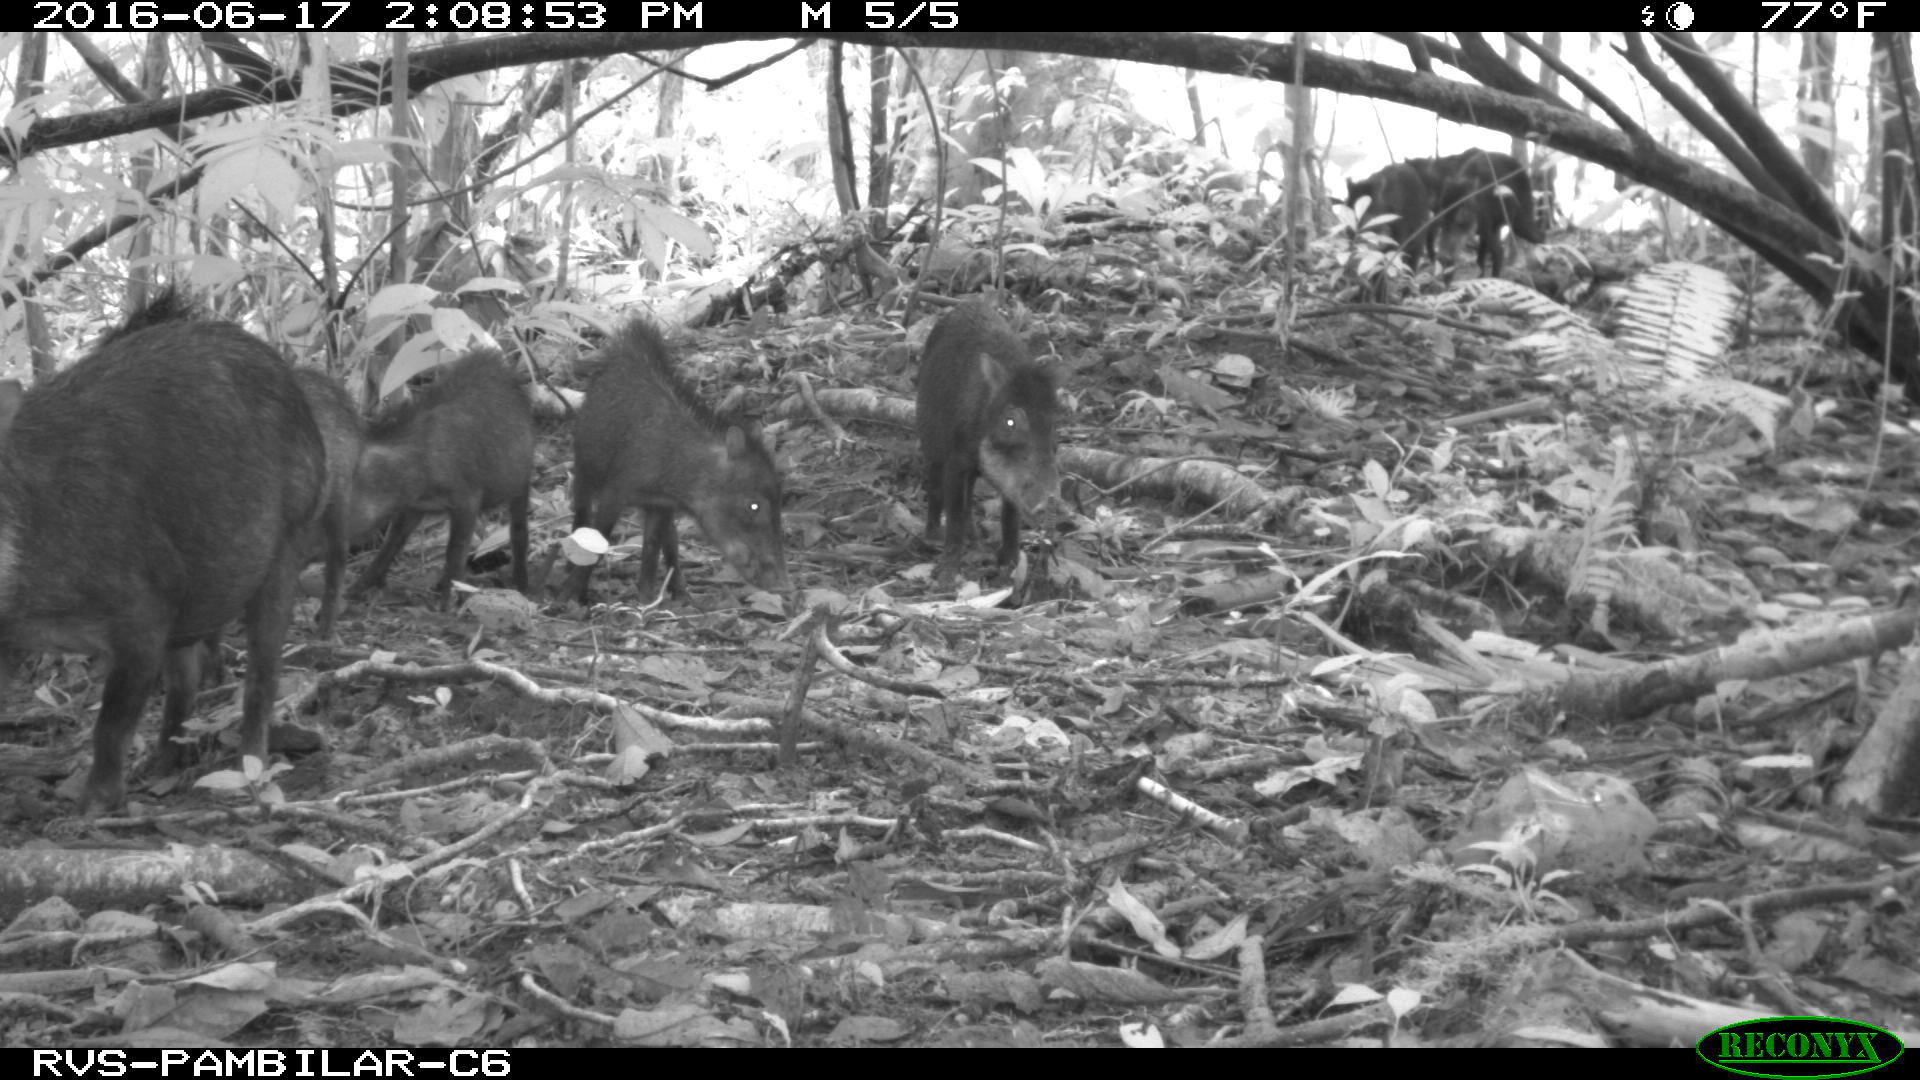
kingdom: Animalia
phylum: Chordata
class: Mammalia
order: Artiodactyla
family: Tayassuidae
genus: Tayassu
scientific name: Tayassu pecari
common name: White-lipped peccary
